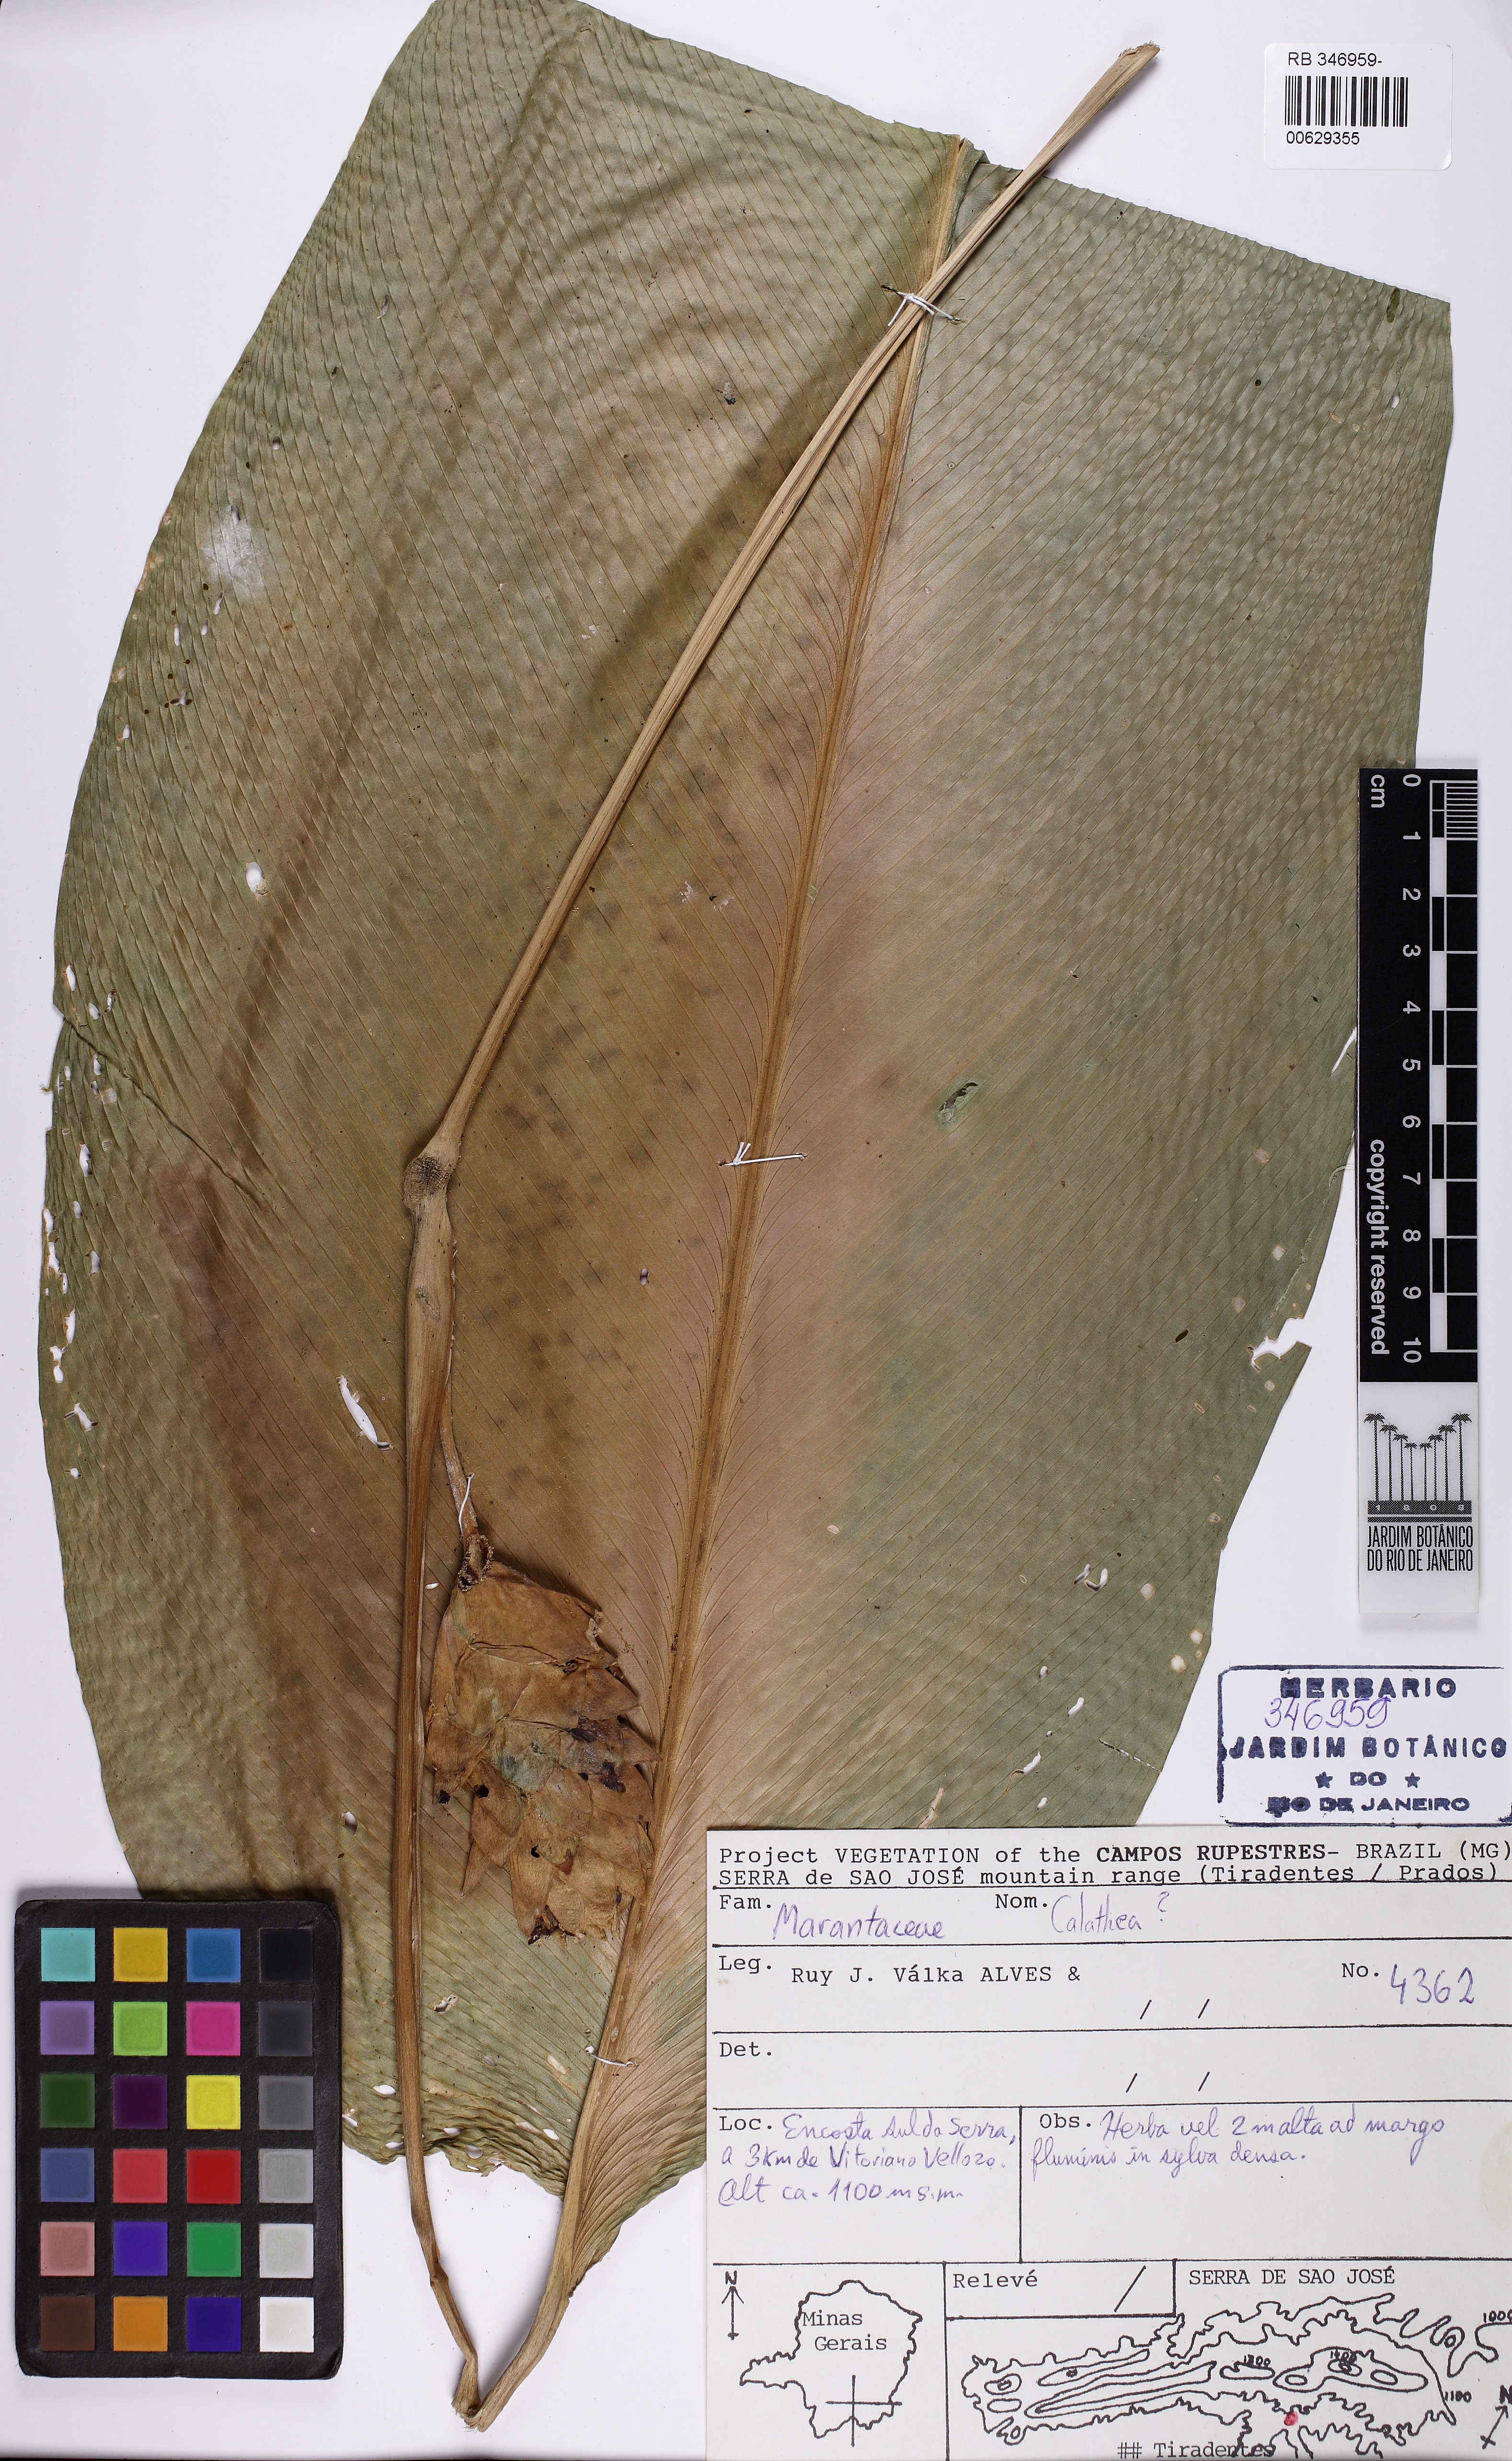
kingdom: Plantae
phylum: Tracheophyta
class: Liliopsida
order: Zingiberales
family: Marantaceae
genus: Calathea
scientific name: Calathea
